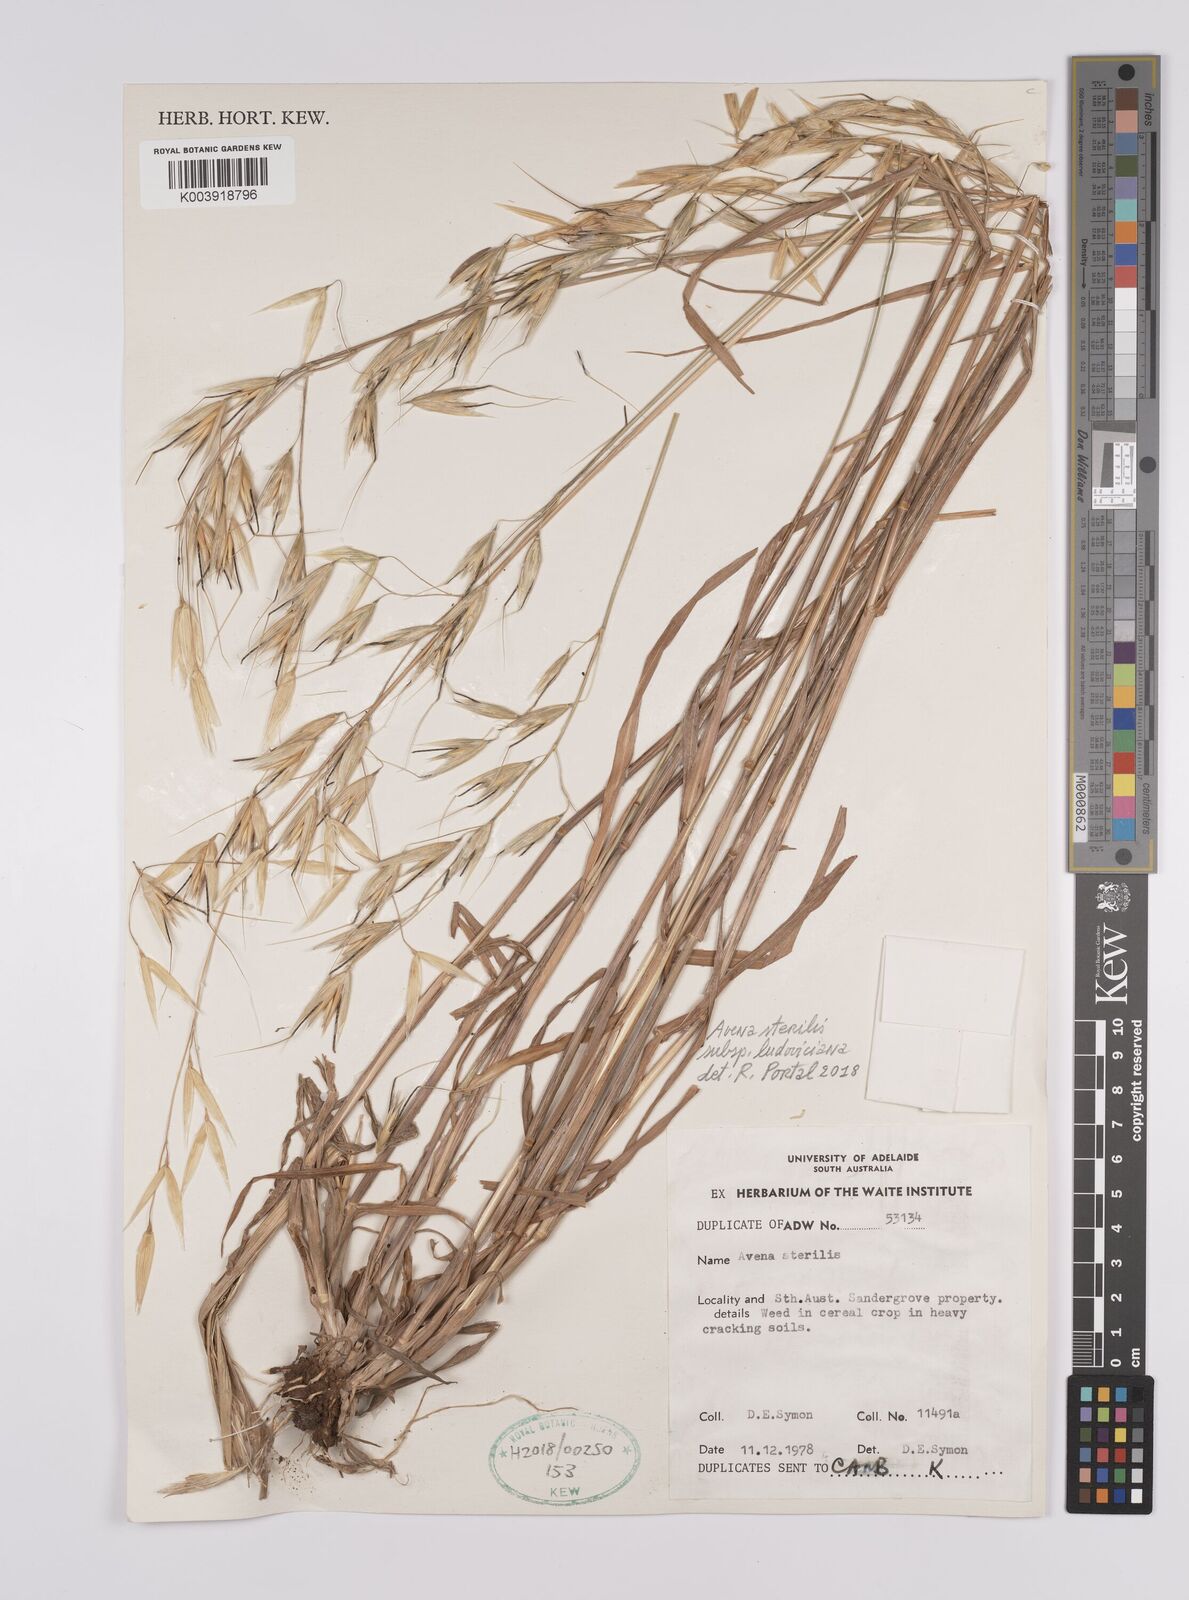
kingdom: Plantae
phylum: Tracheophyta
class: Liliopsida
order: Poales
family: Poaceae
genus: Avena
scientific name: Avena sterilis
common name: Animated oat
